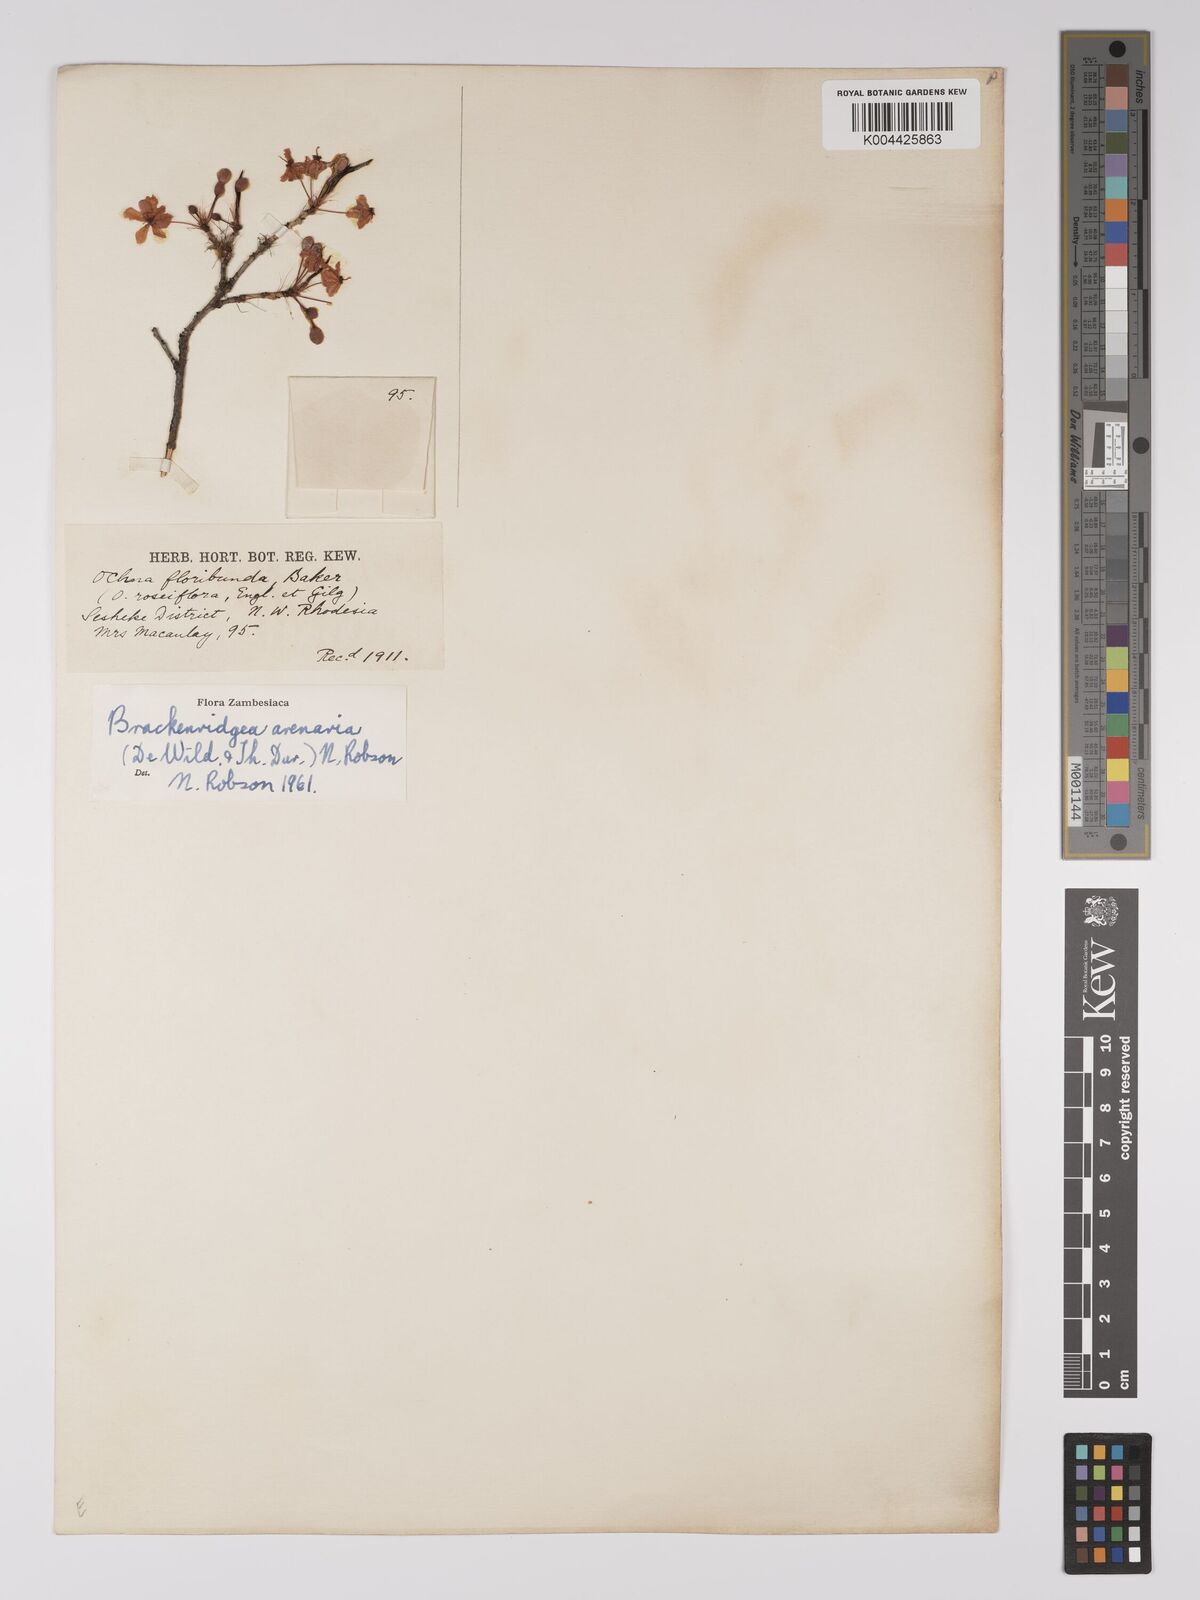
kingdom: Plantae
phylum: Tracheophyta
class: Magnoliopsida
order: Malpighiales
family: Ochnaceae
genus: Ochna
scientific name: Ochna arenaria
